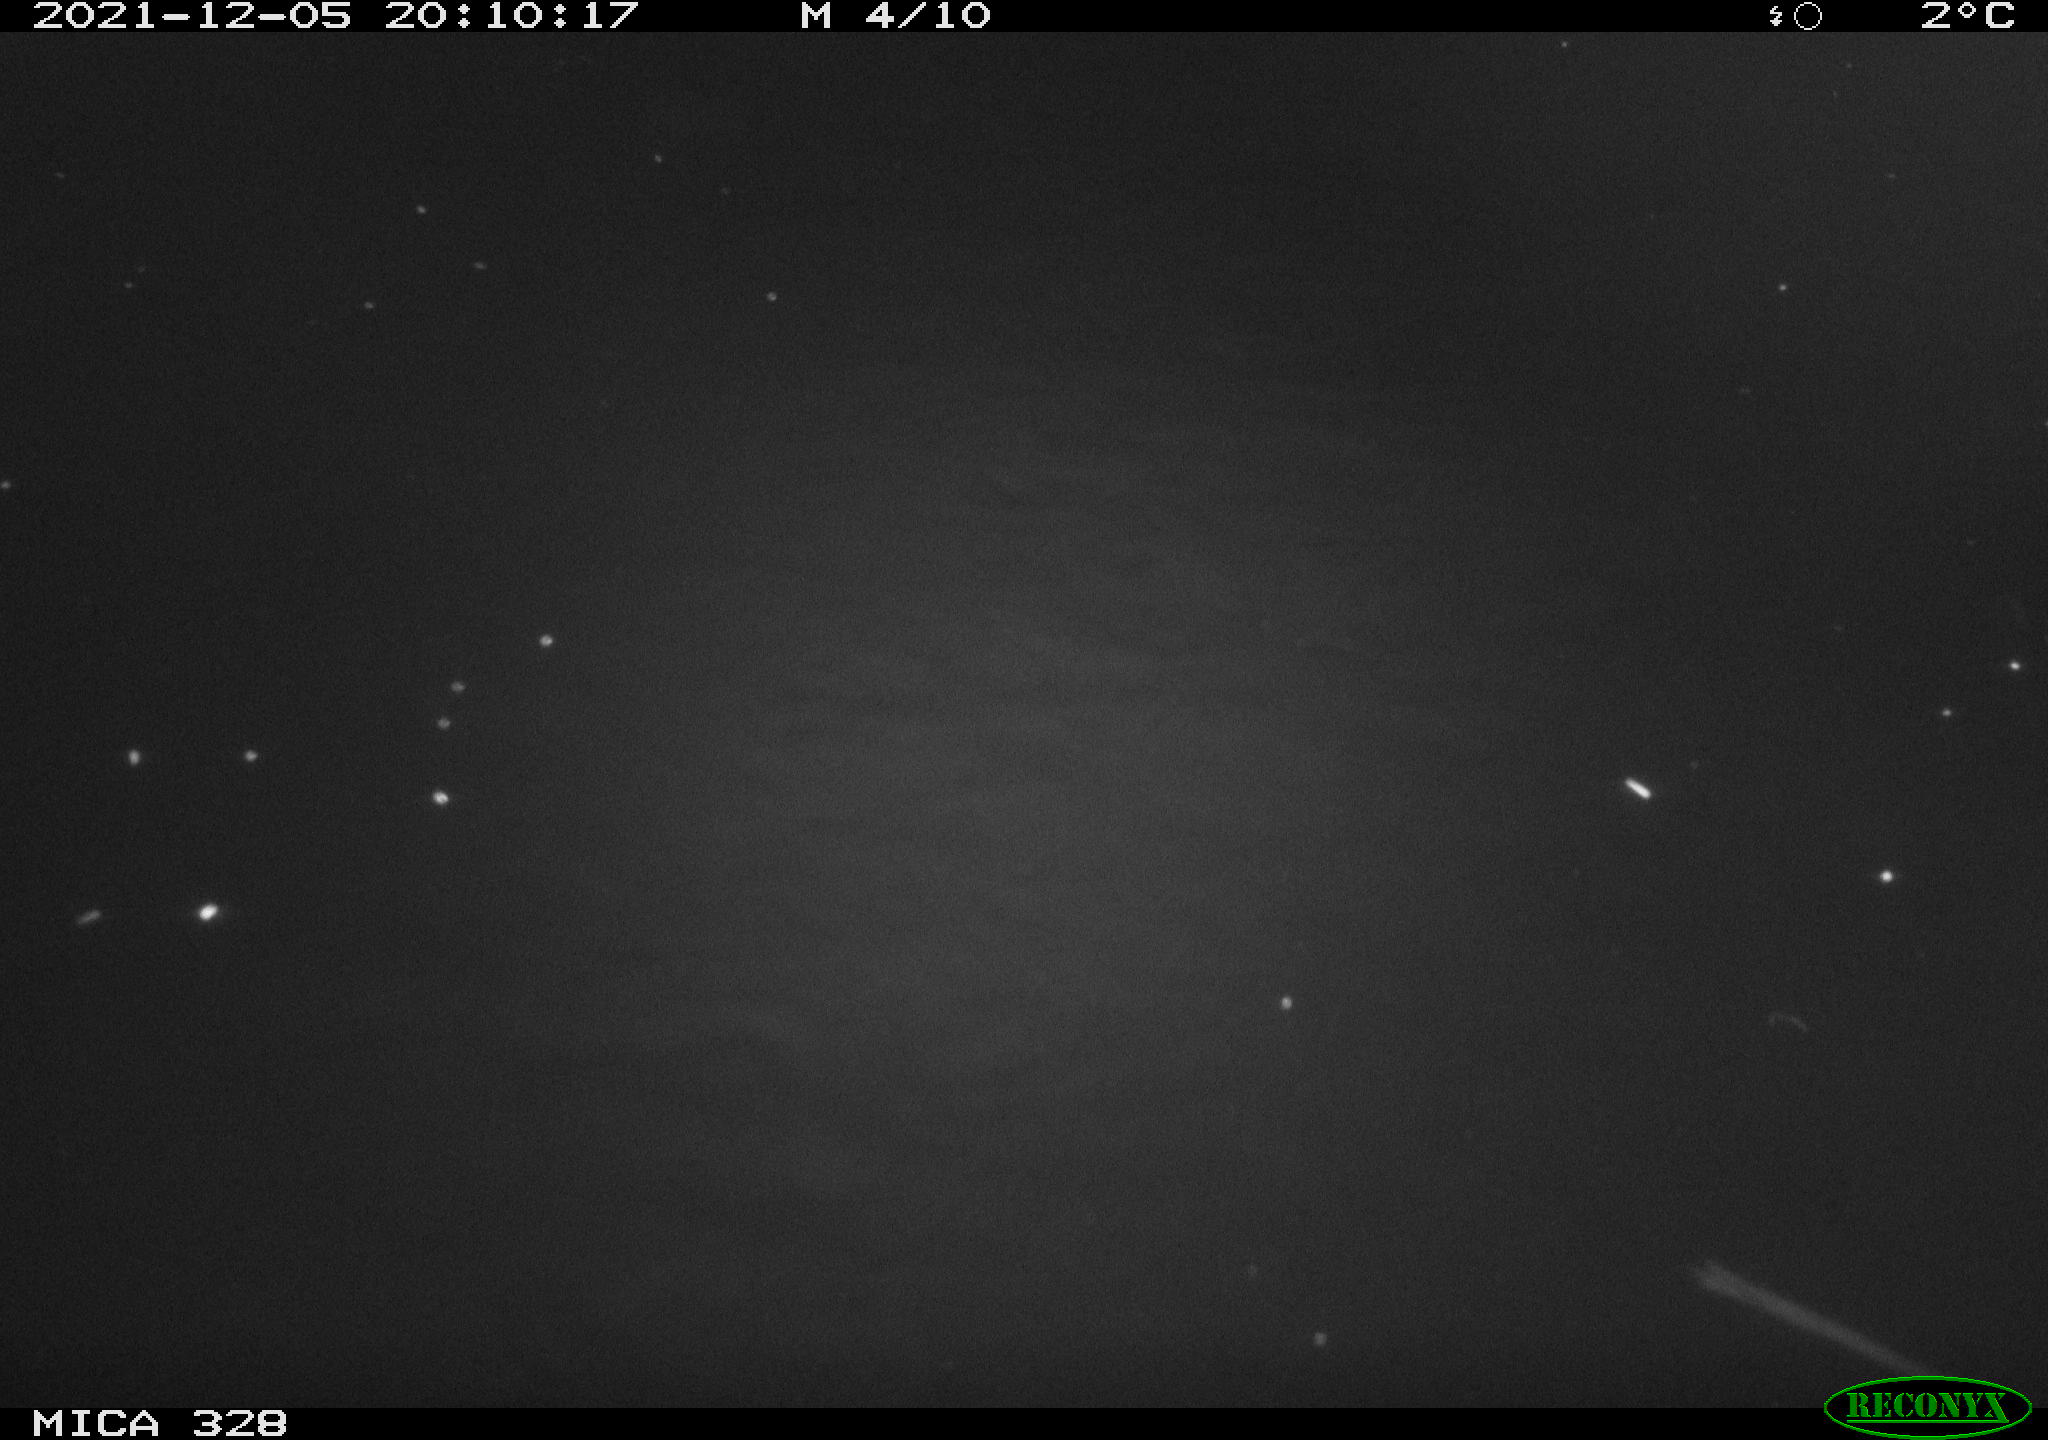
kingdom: Animalia
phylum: Chordata
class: Mammalia
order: Rodentia
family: Cricetidae
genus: Ondatra
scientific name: Ondatra zibethicus
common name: Muskrat
